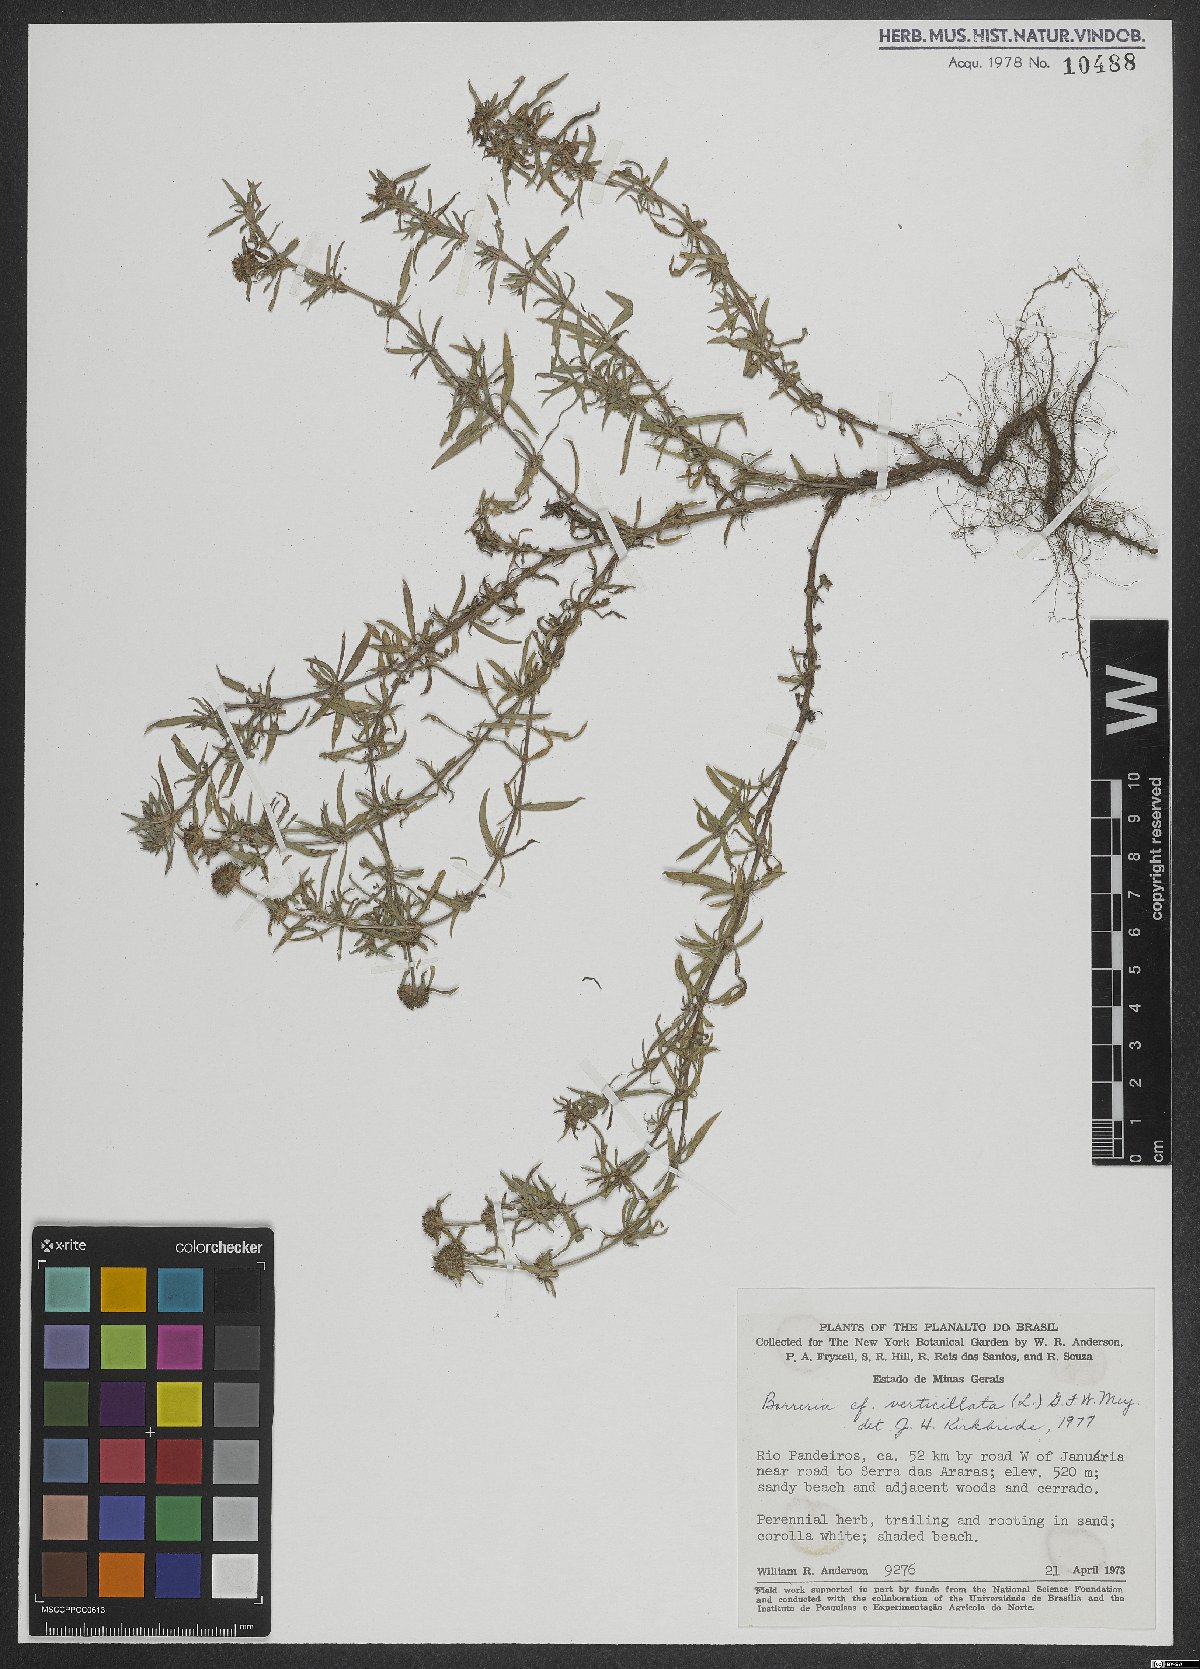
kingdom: Plantae
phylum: Tracheophyta
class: Magnoliopsida
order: Gentianales
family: Rubiaceae
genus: Spermacoce
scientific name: Spermacoce verticillata
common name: Shrubby false buttonweed
